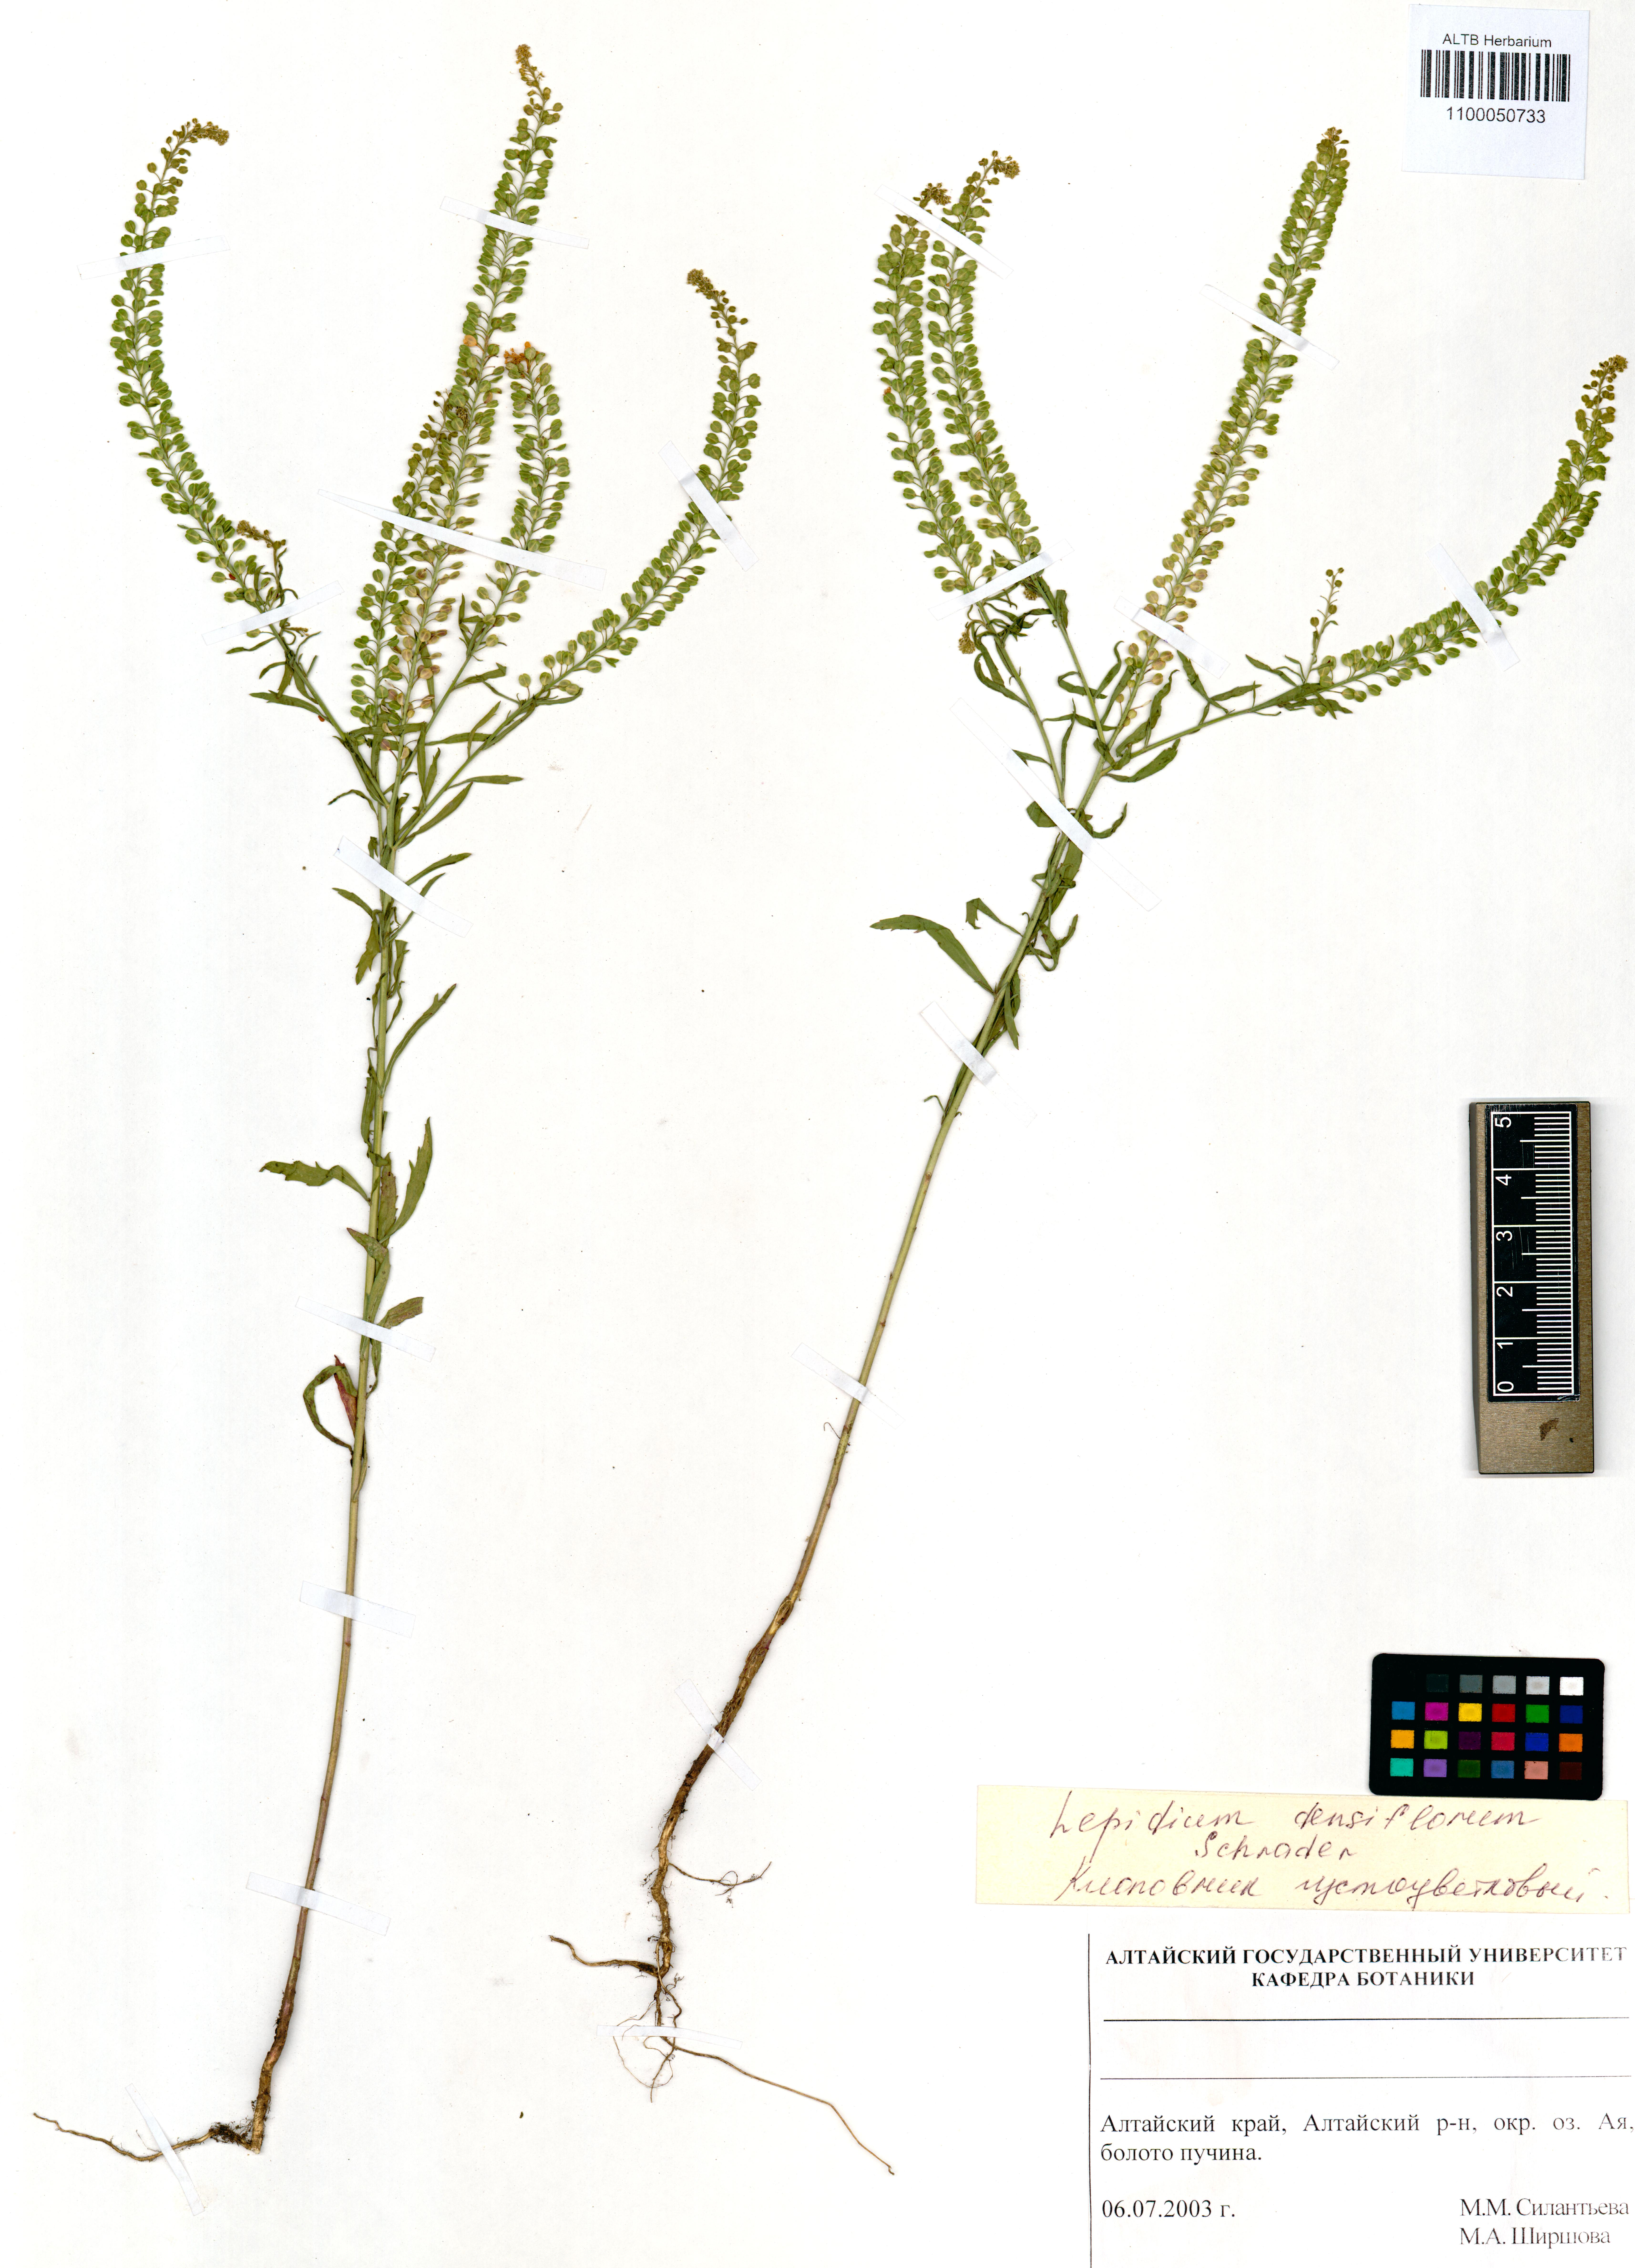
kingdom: Plantae
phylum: Tracheophyta
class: Magnoliopsida
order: Brassicales
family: Brassicaceae
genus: Lepidium
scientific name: Lepidium densiflorum
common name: Miner's pepperwort
